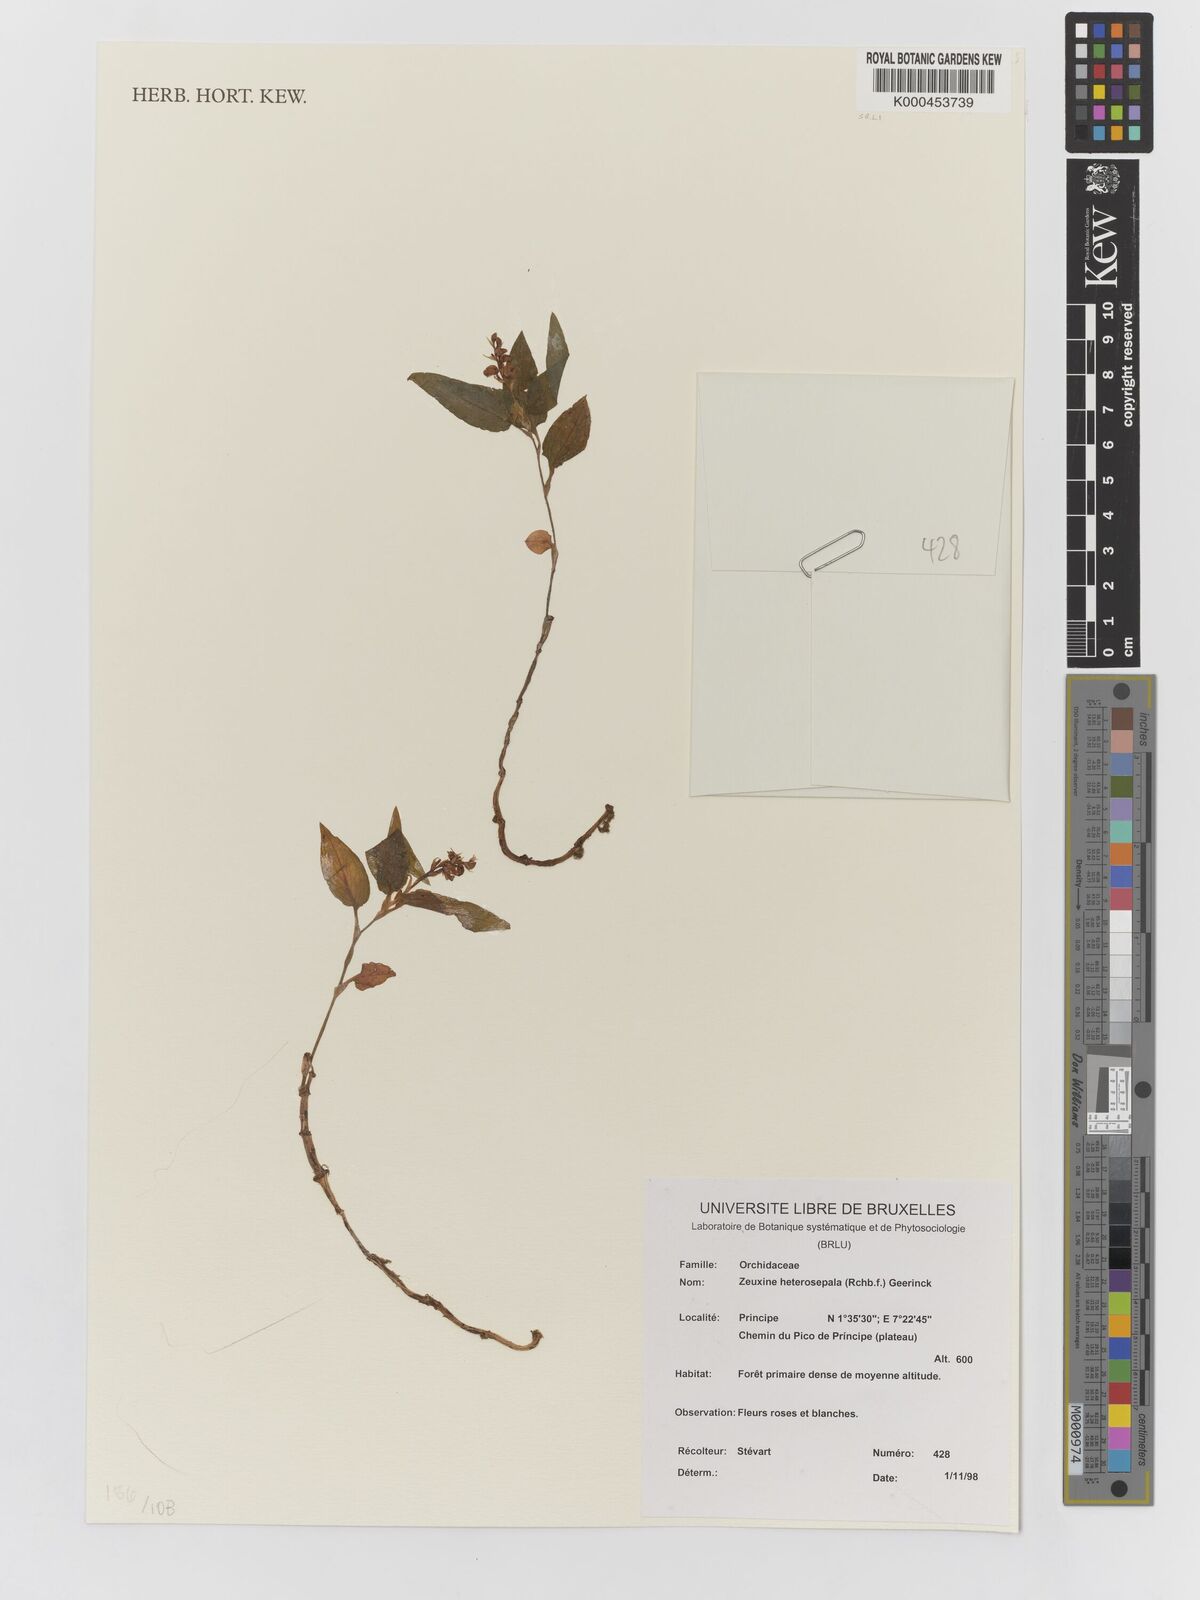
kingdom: Plantae
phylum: Tracheophyta
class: Liliopsida
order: Asparagales
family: Orchidaceae
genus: Hetaeria
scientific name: Hetaeria heterosepala
